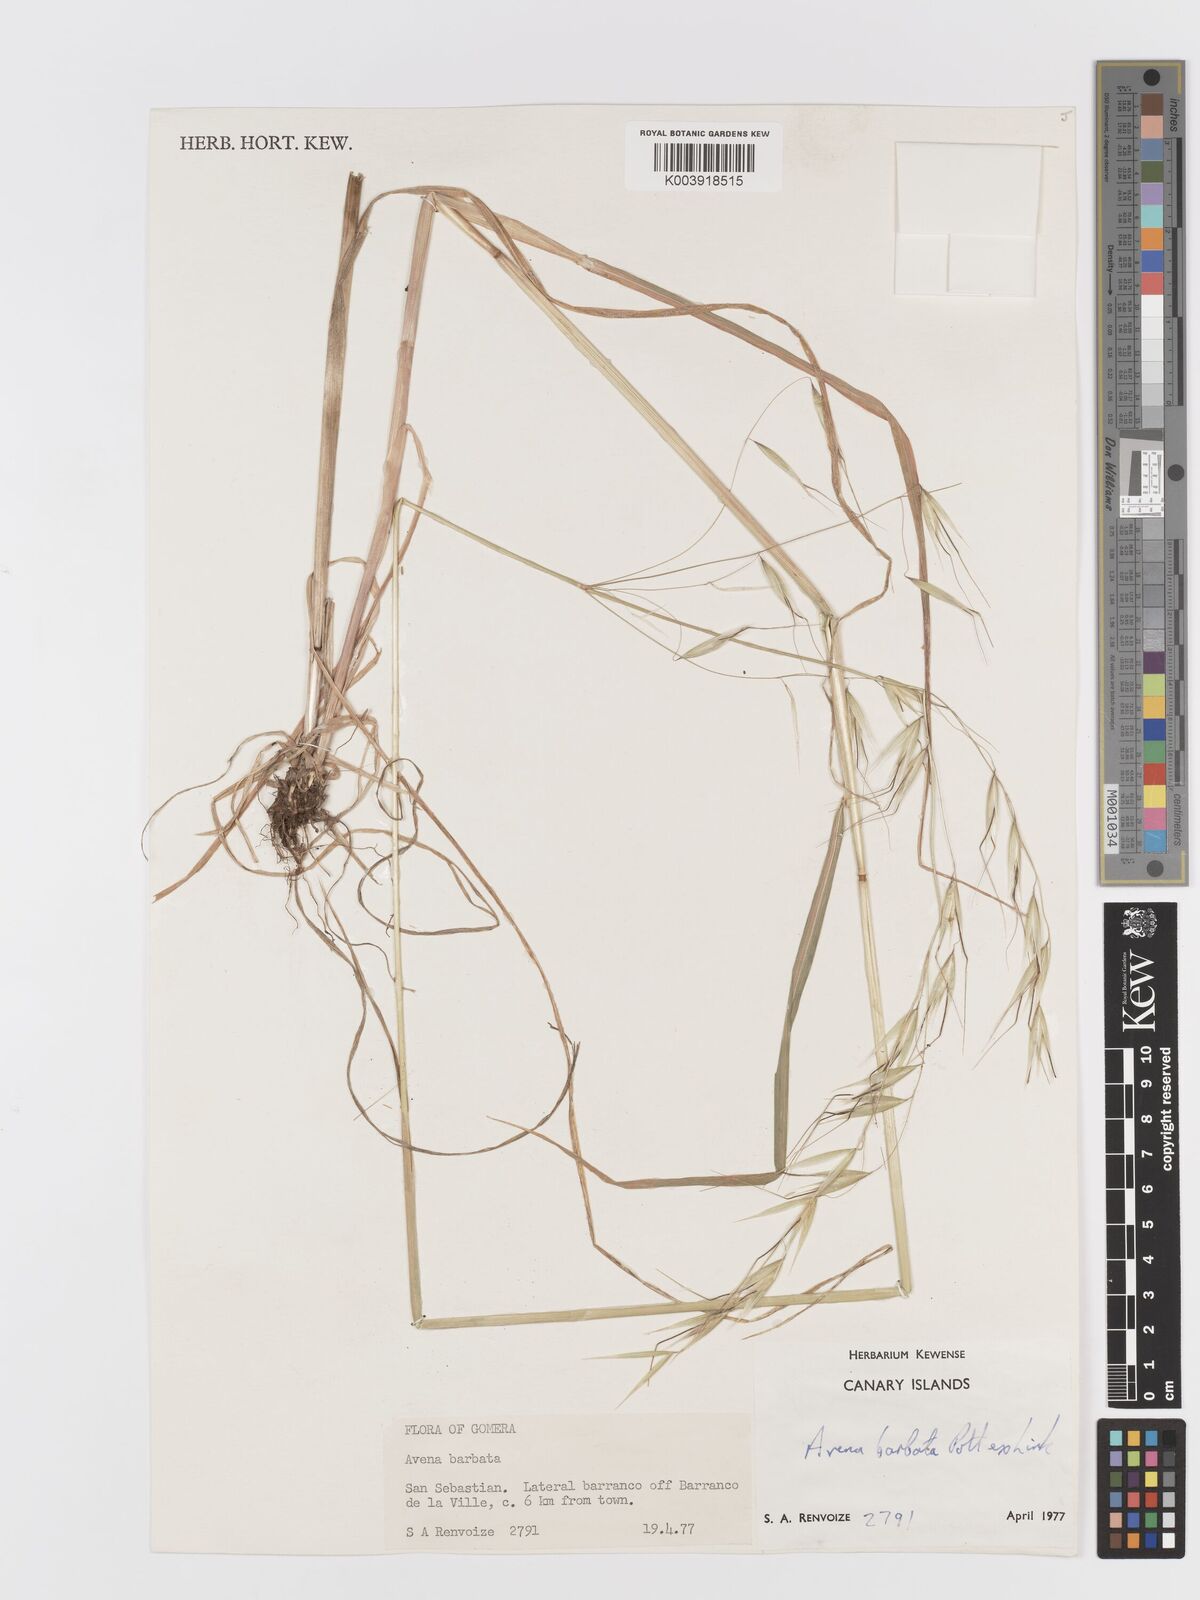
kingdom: Plantae
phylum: Tracheophyta
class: Liliopsida
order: Poales
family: Poaceae
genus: Avena
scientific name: Avena
